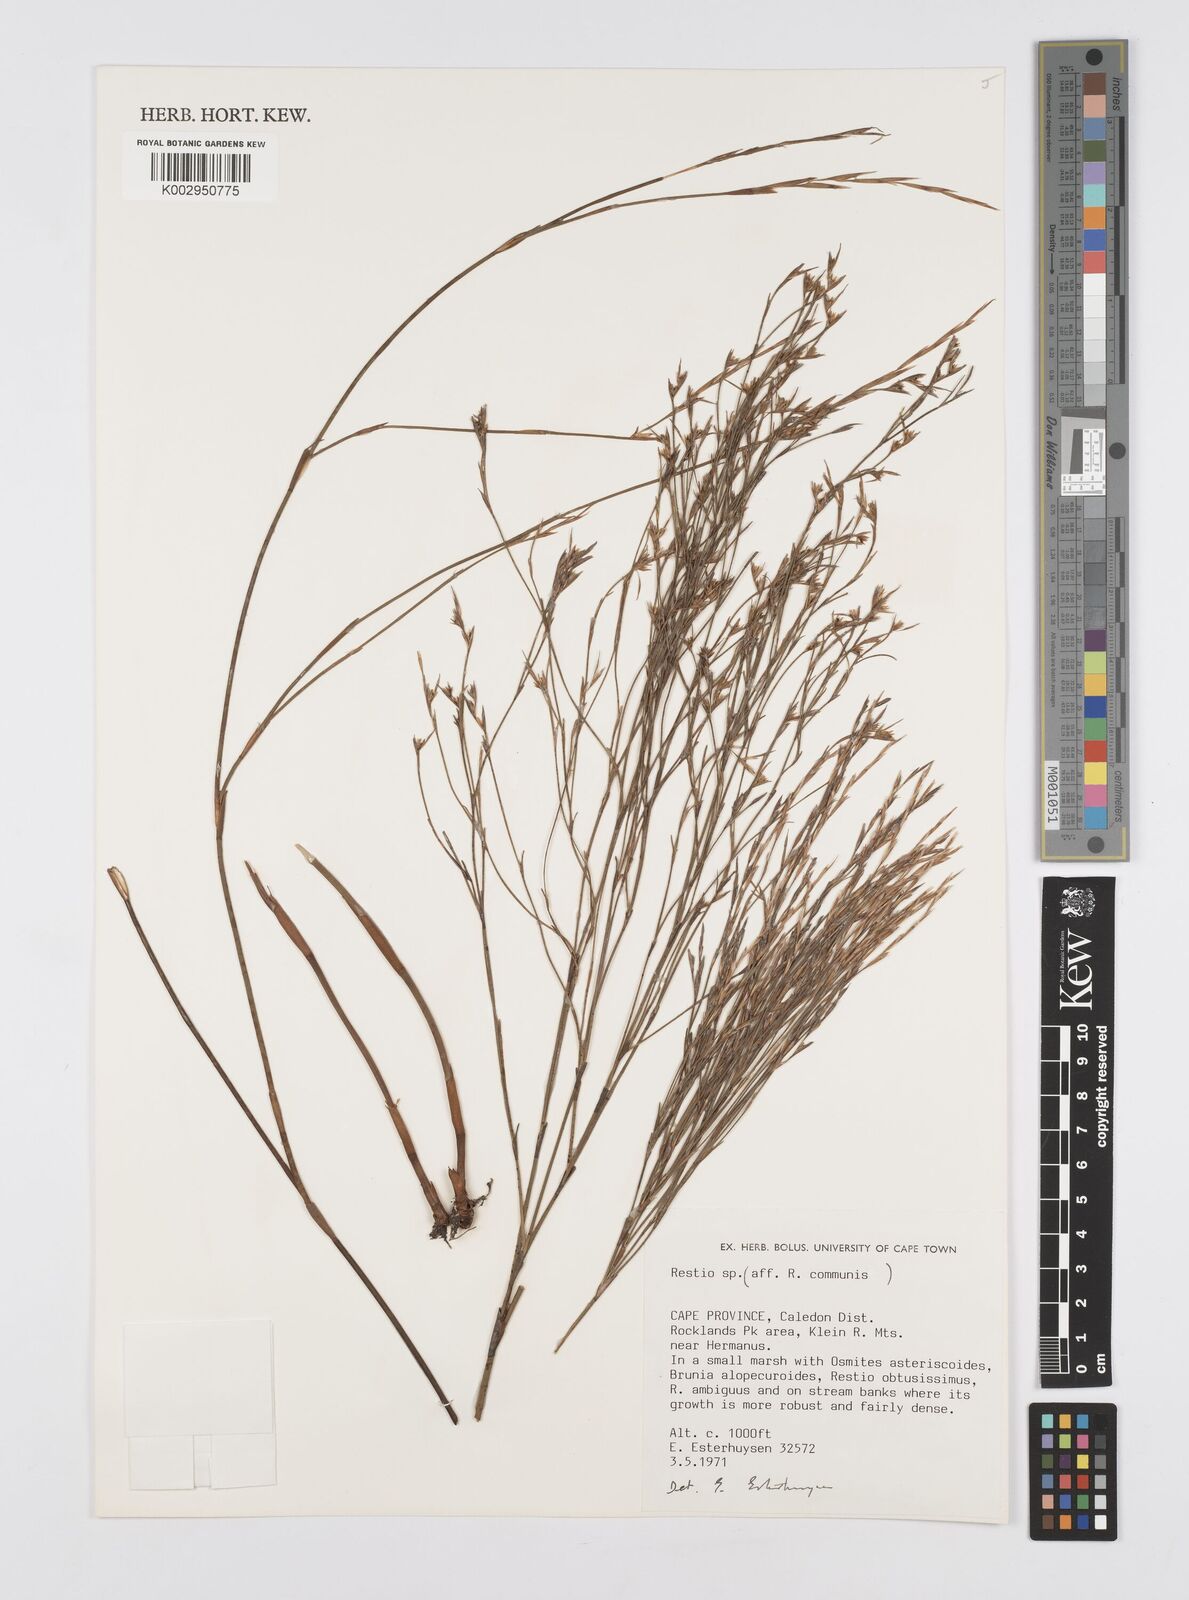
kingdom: Plantae
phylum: Tracheophyta
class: Liliopsida
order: Poales
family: Restionaceae
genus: Restio
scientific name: Restio communis
